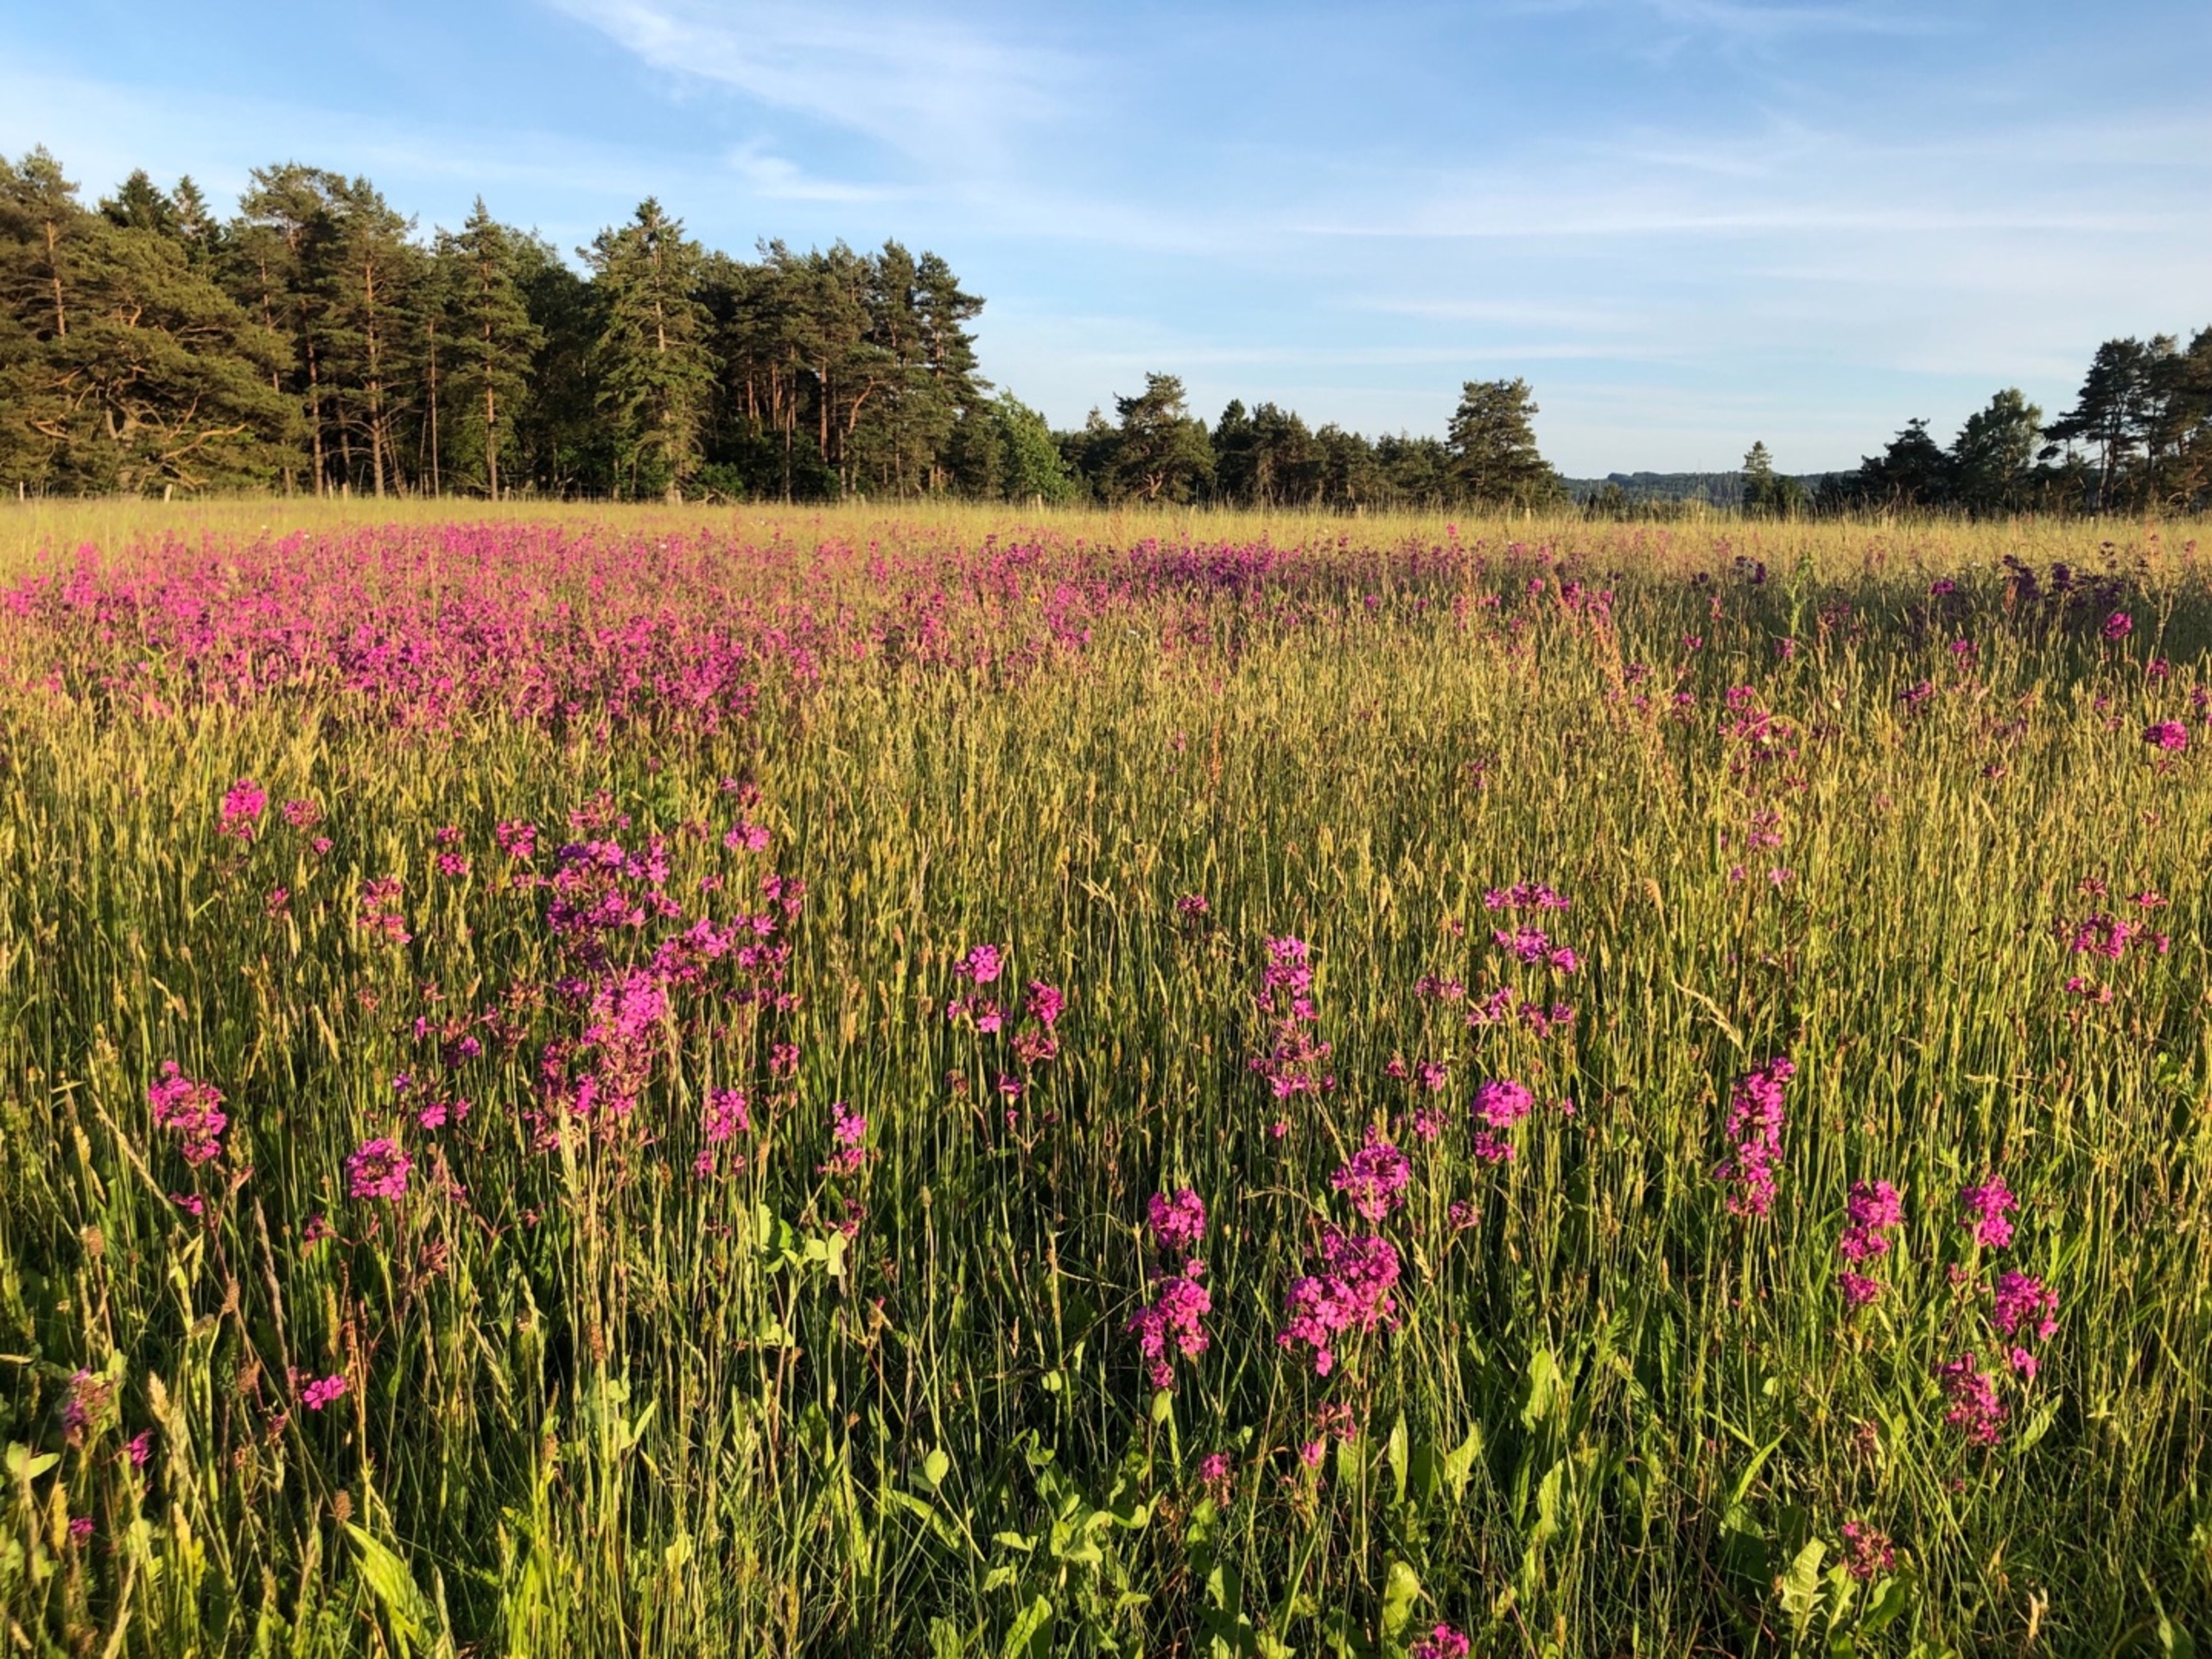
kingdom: Plantae
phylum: Tracheophyta
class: Magnoliopsida
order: Caryophyllales
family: Caryophyllaceae
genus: Viscaria
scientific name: Viscaria vulgaris
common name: Tjærenellike
